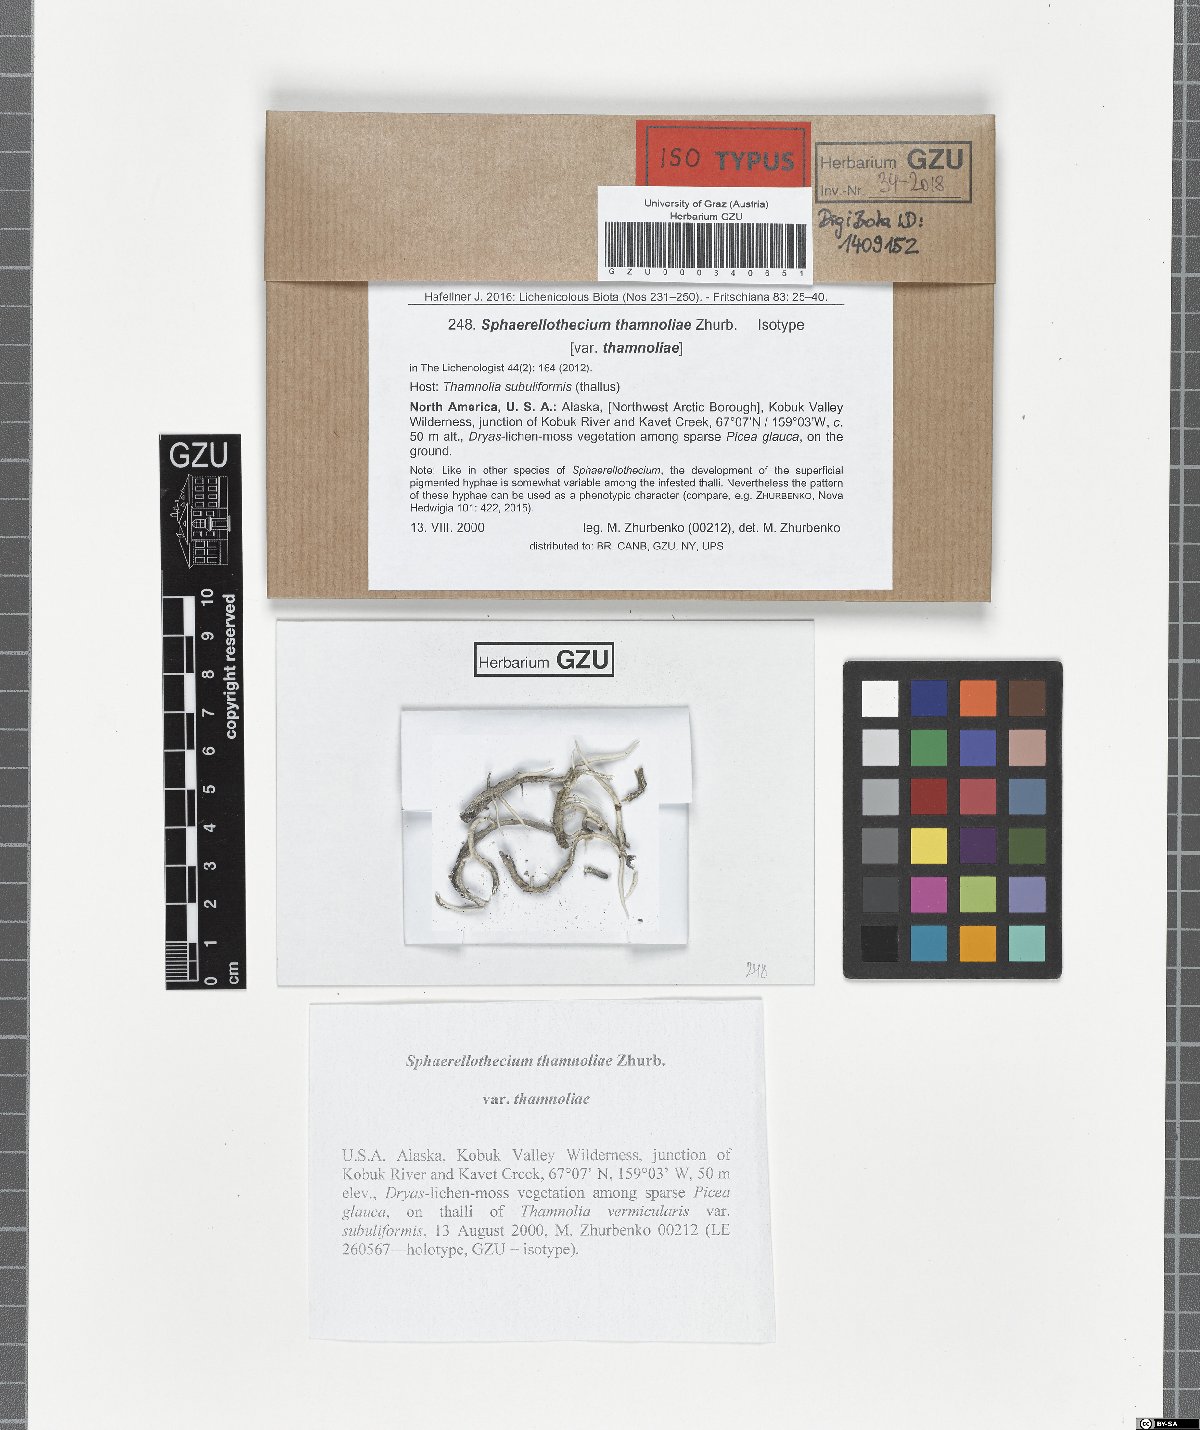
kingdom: Fungi
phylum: Ascomycota
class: Dothideomycetes
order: Mycosphaerellales
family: Mycosphaerellaceae
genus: Sphaerellothecium
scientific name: Sphaerellothecium thamnoliae
